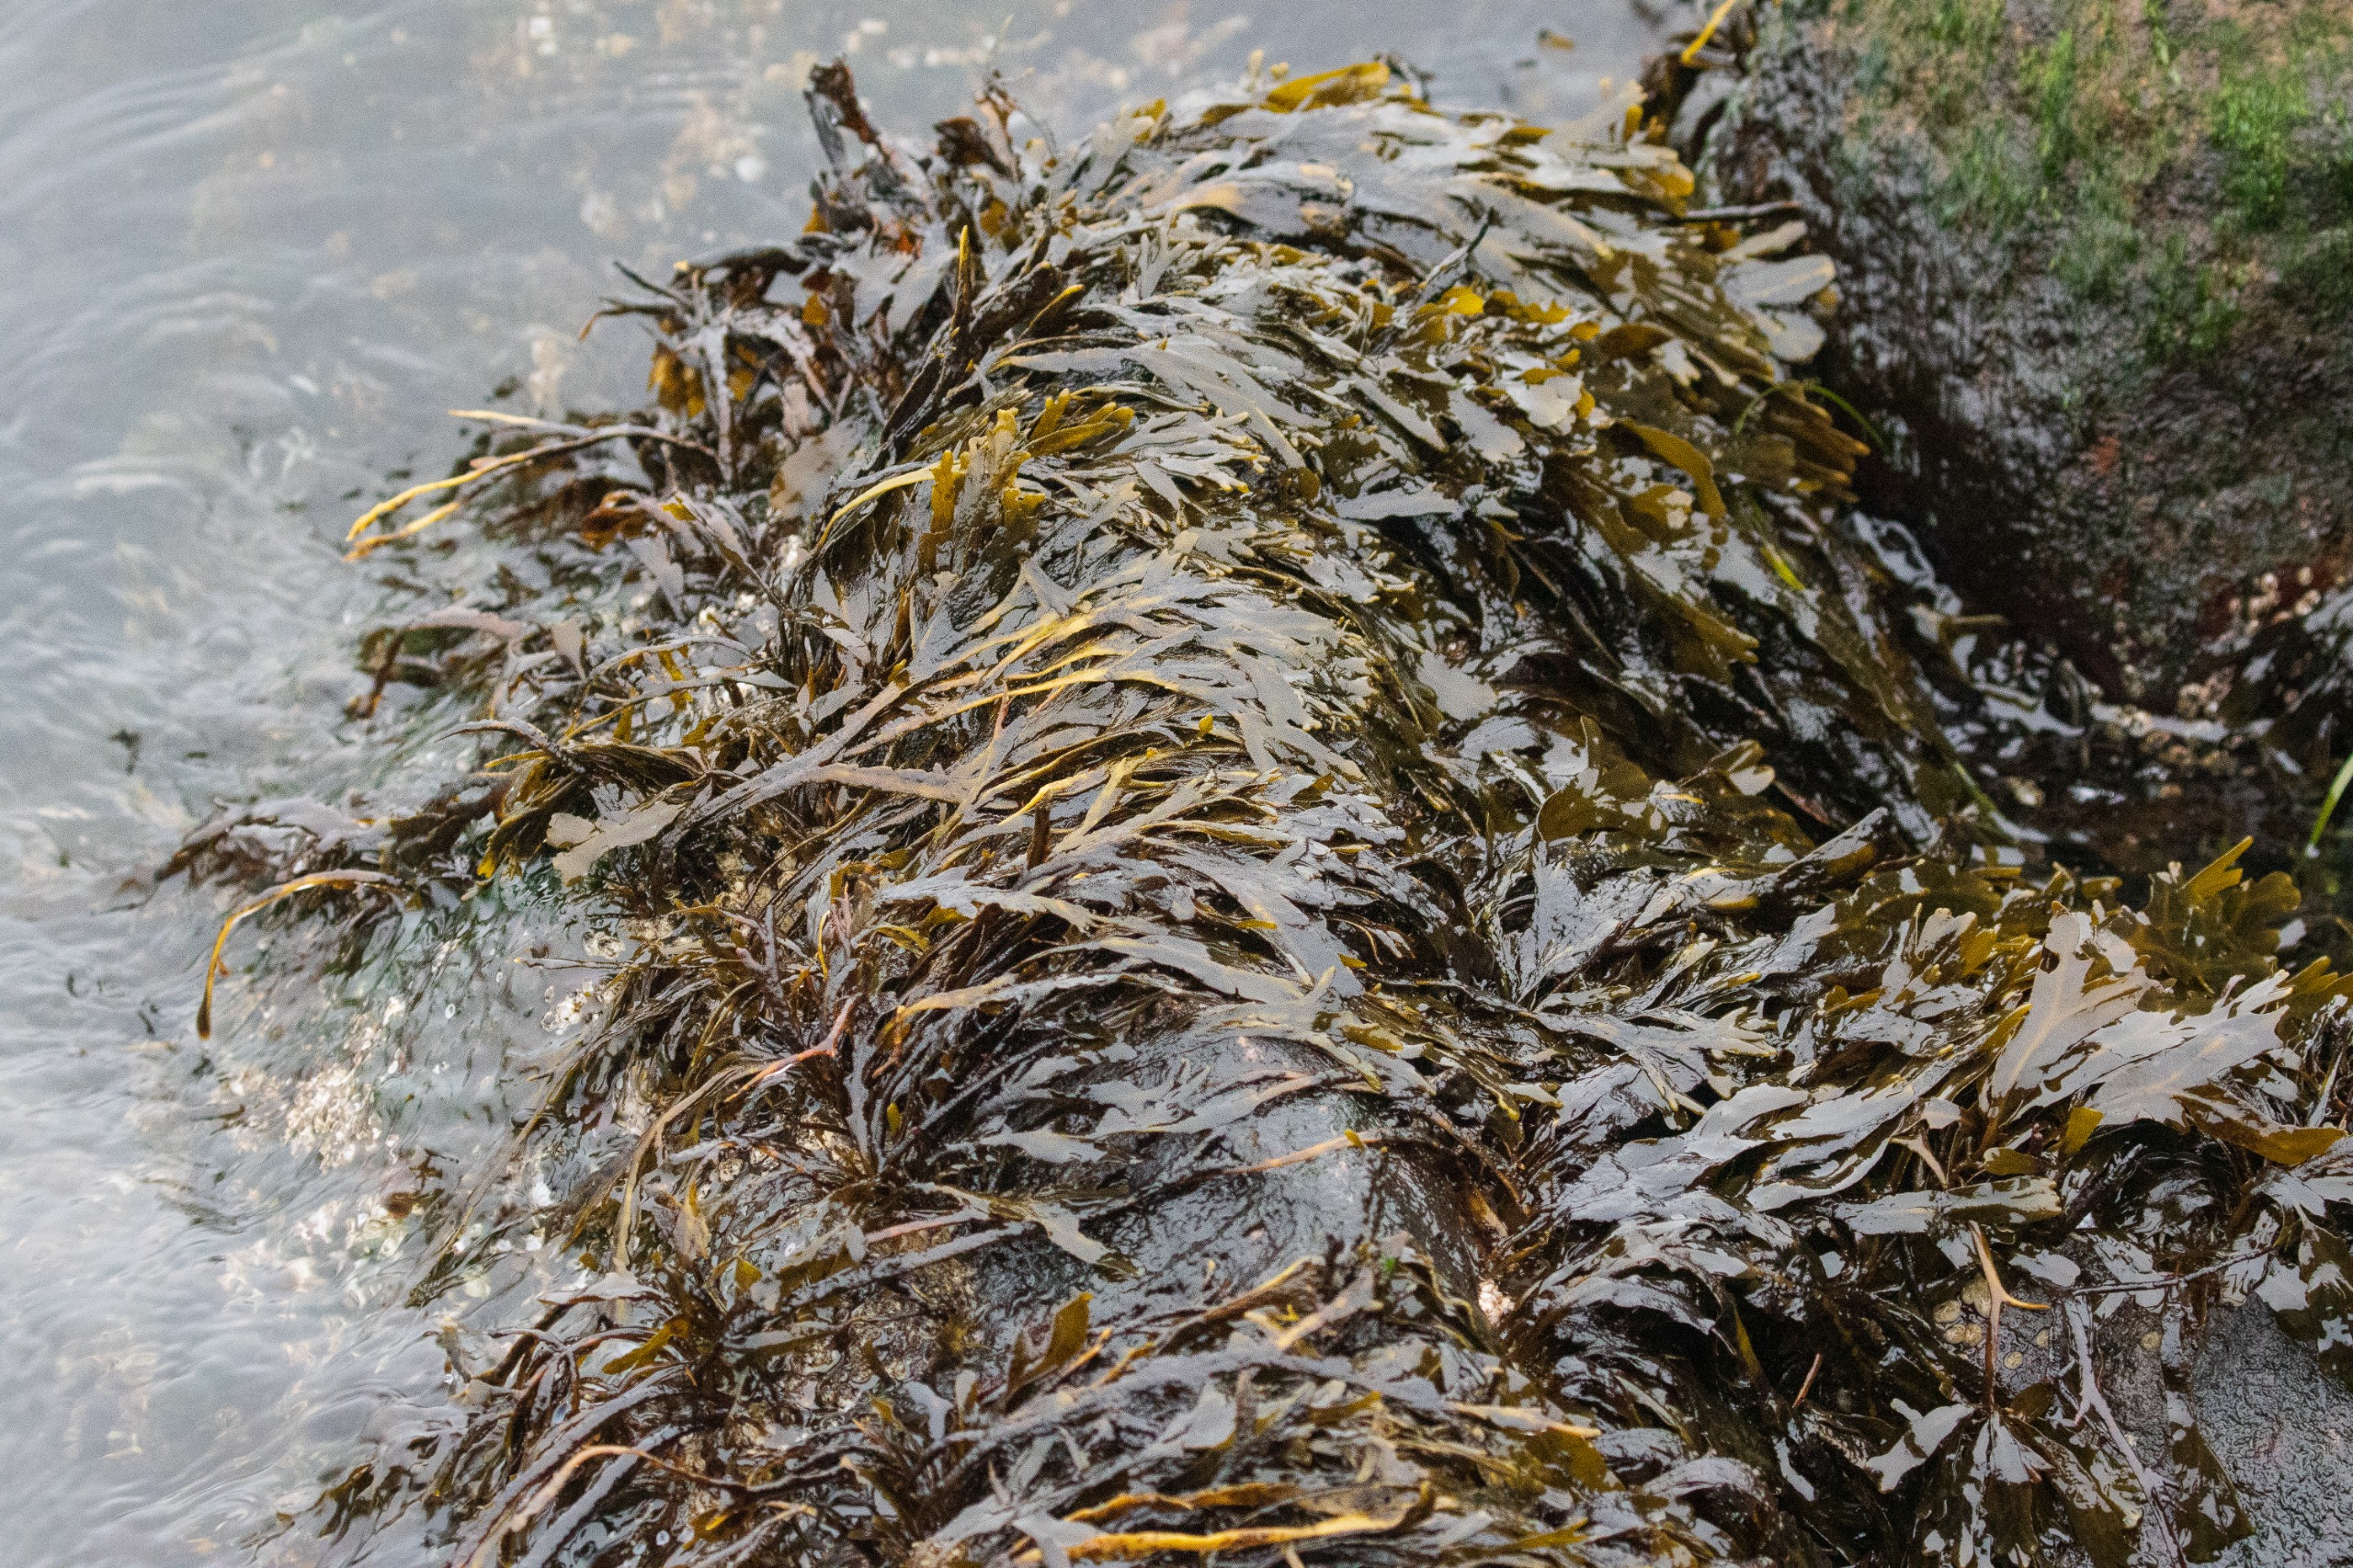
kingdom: Chromista
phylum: Ochrophyta
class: Phaeophyceae
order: Fucales
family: Fucaceae
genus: Fucus
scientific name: Fucus vesiculosus
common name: Blæretang
